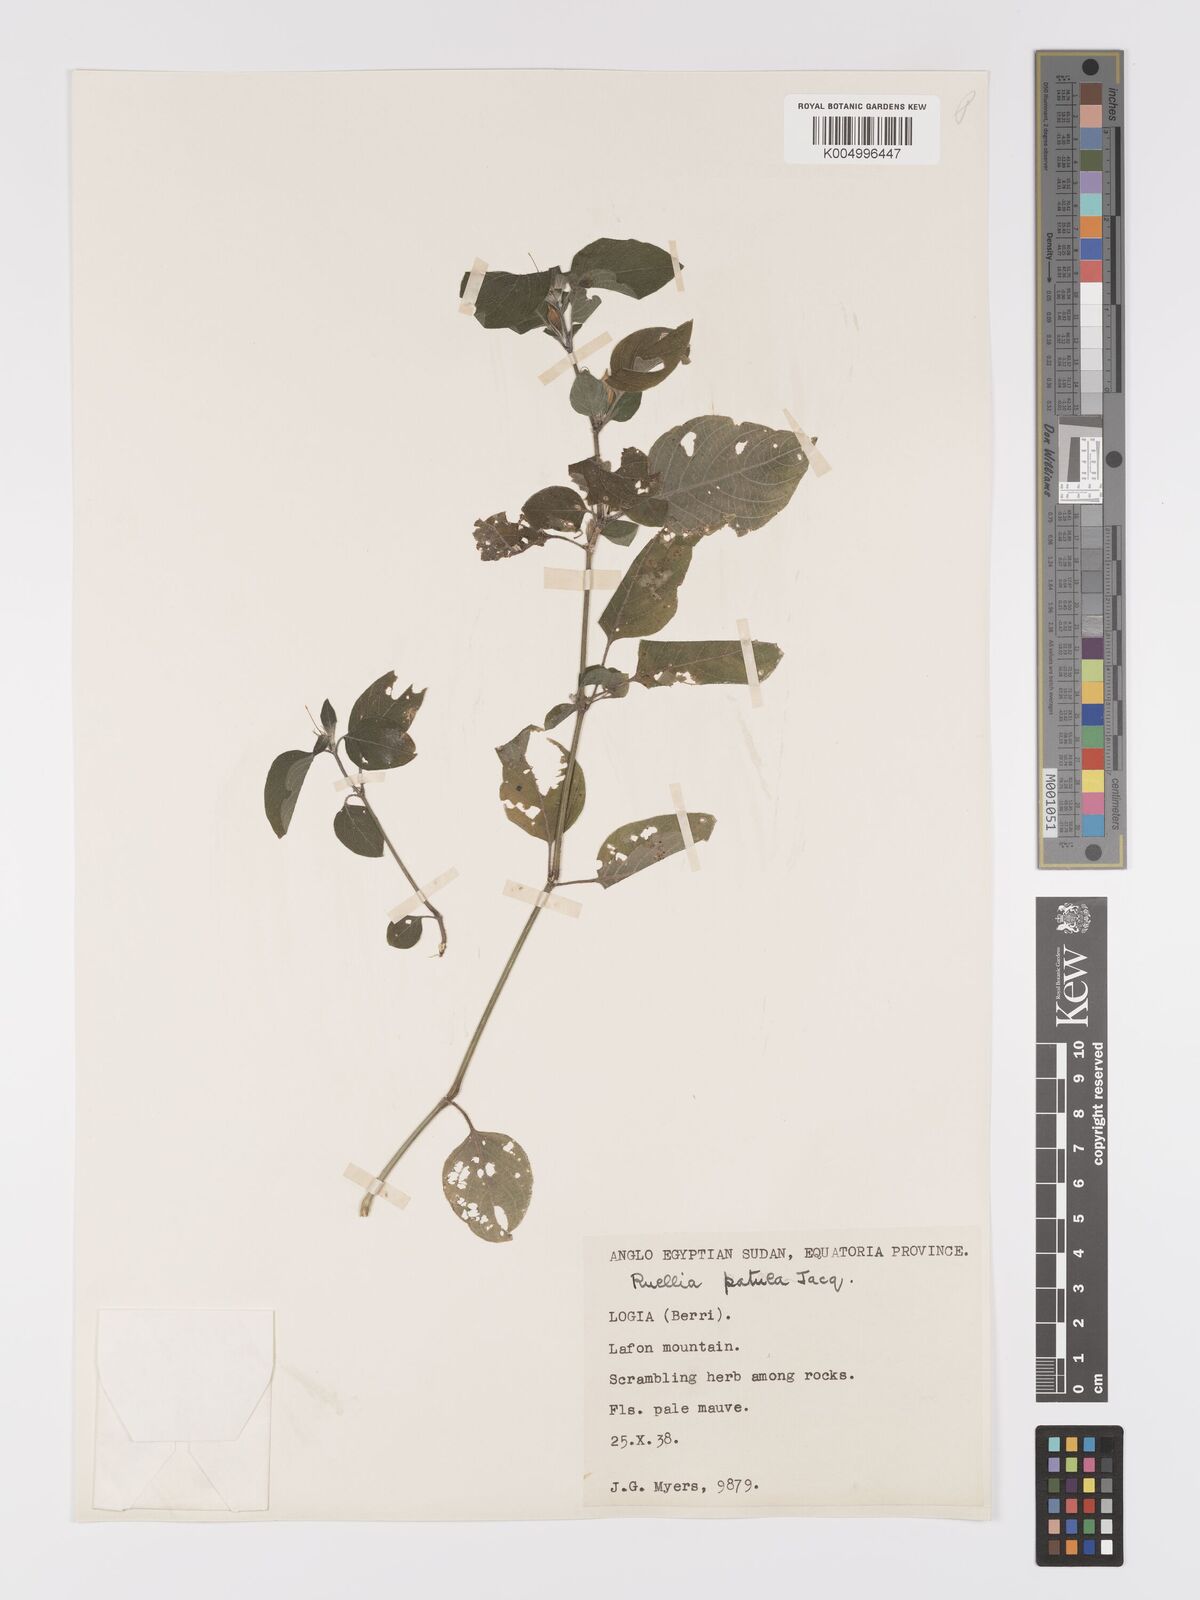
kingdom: Plantae
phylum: Tracheophyta
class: Magnoliopsida
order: Lamiales
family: Acanthaceae
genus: Ruellia
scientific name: Ruellia
